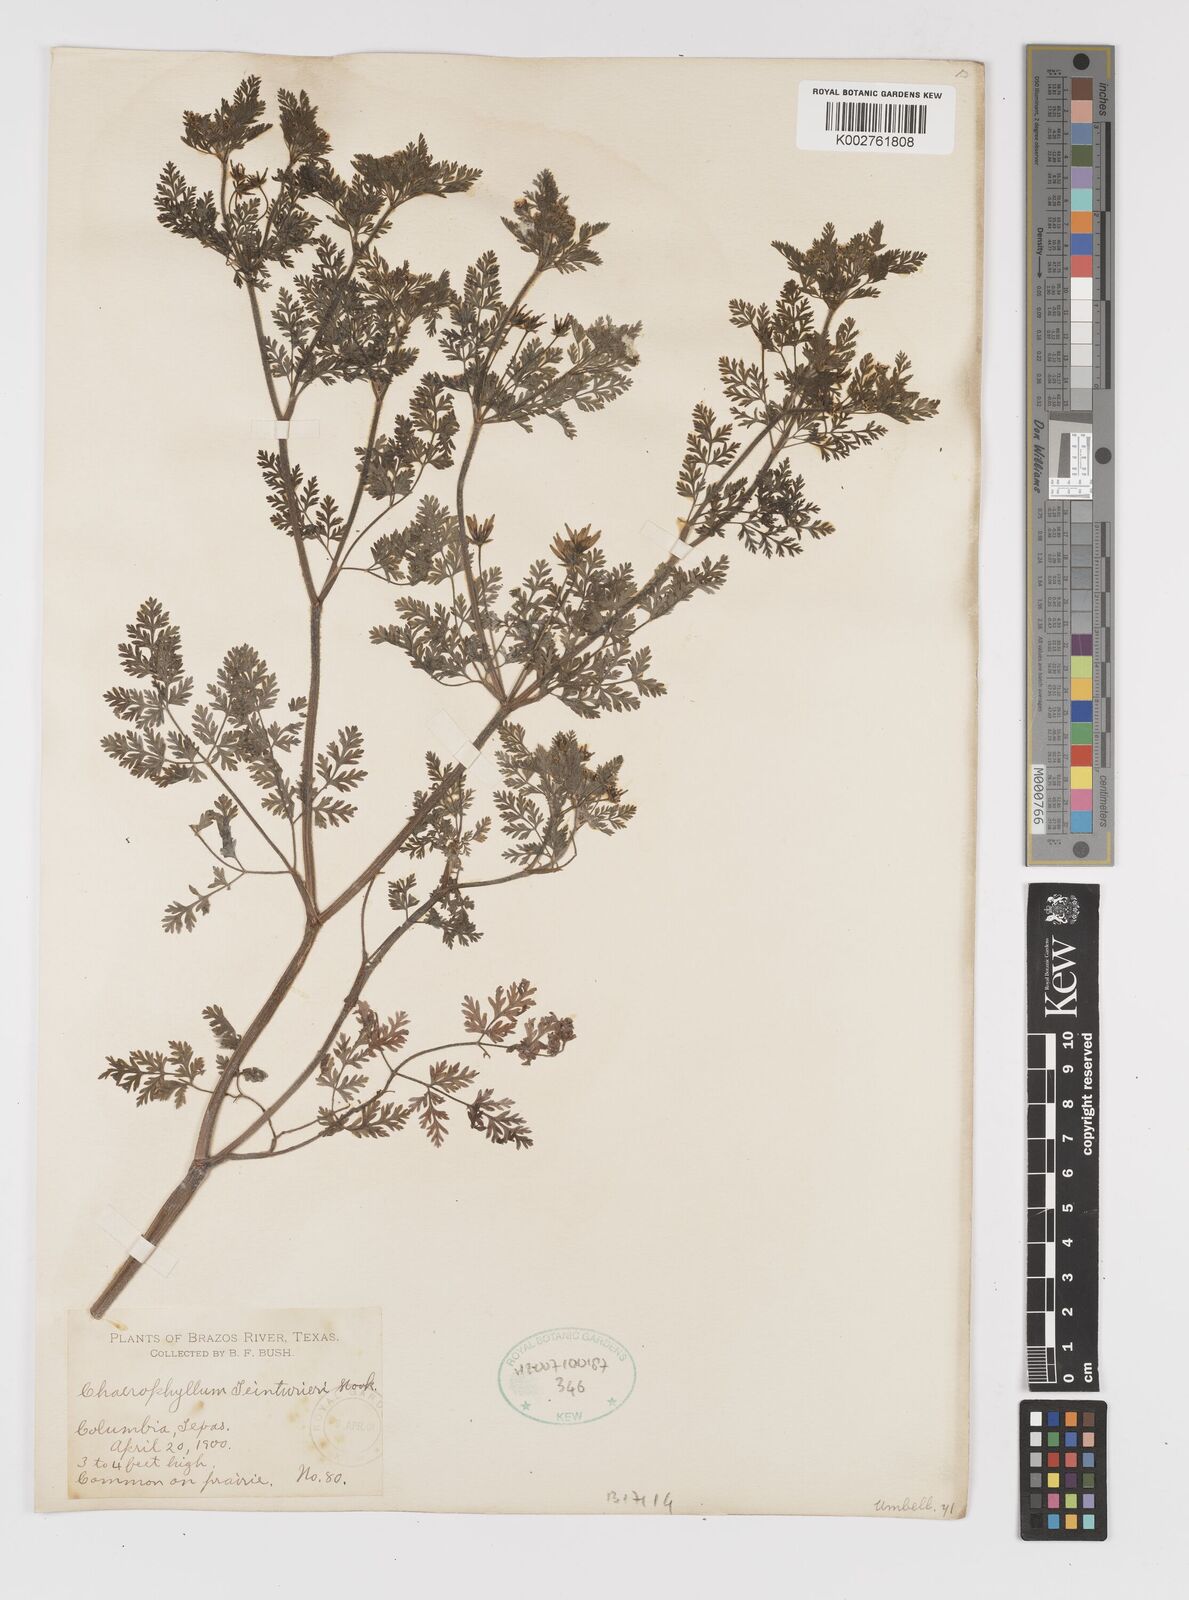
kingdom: Plantae
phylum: Tracheophyta
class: Magnoliopsida
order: Apiales
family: Apiaceae
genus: Chaerophyllum
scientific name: Chaerophyllum tainturieri
